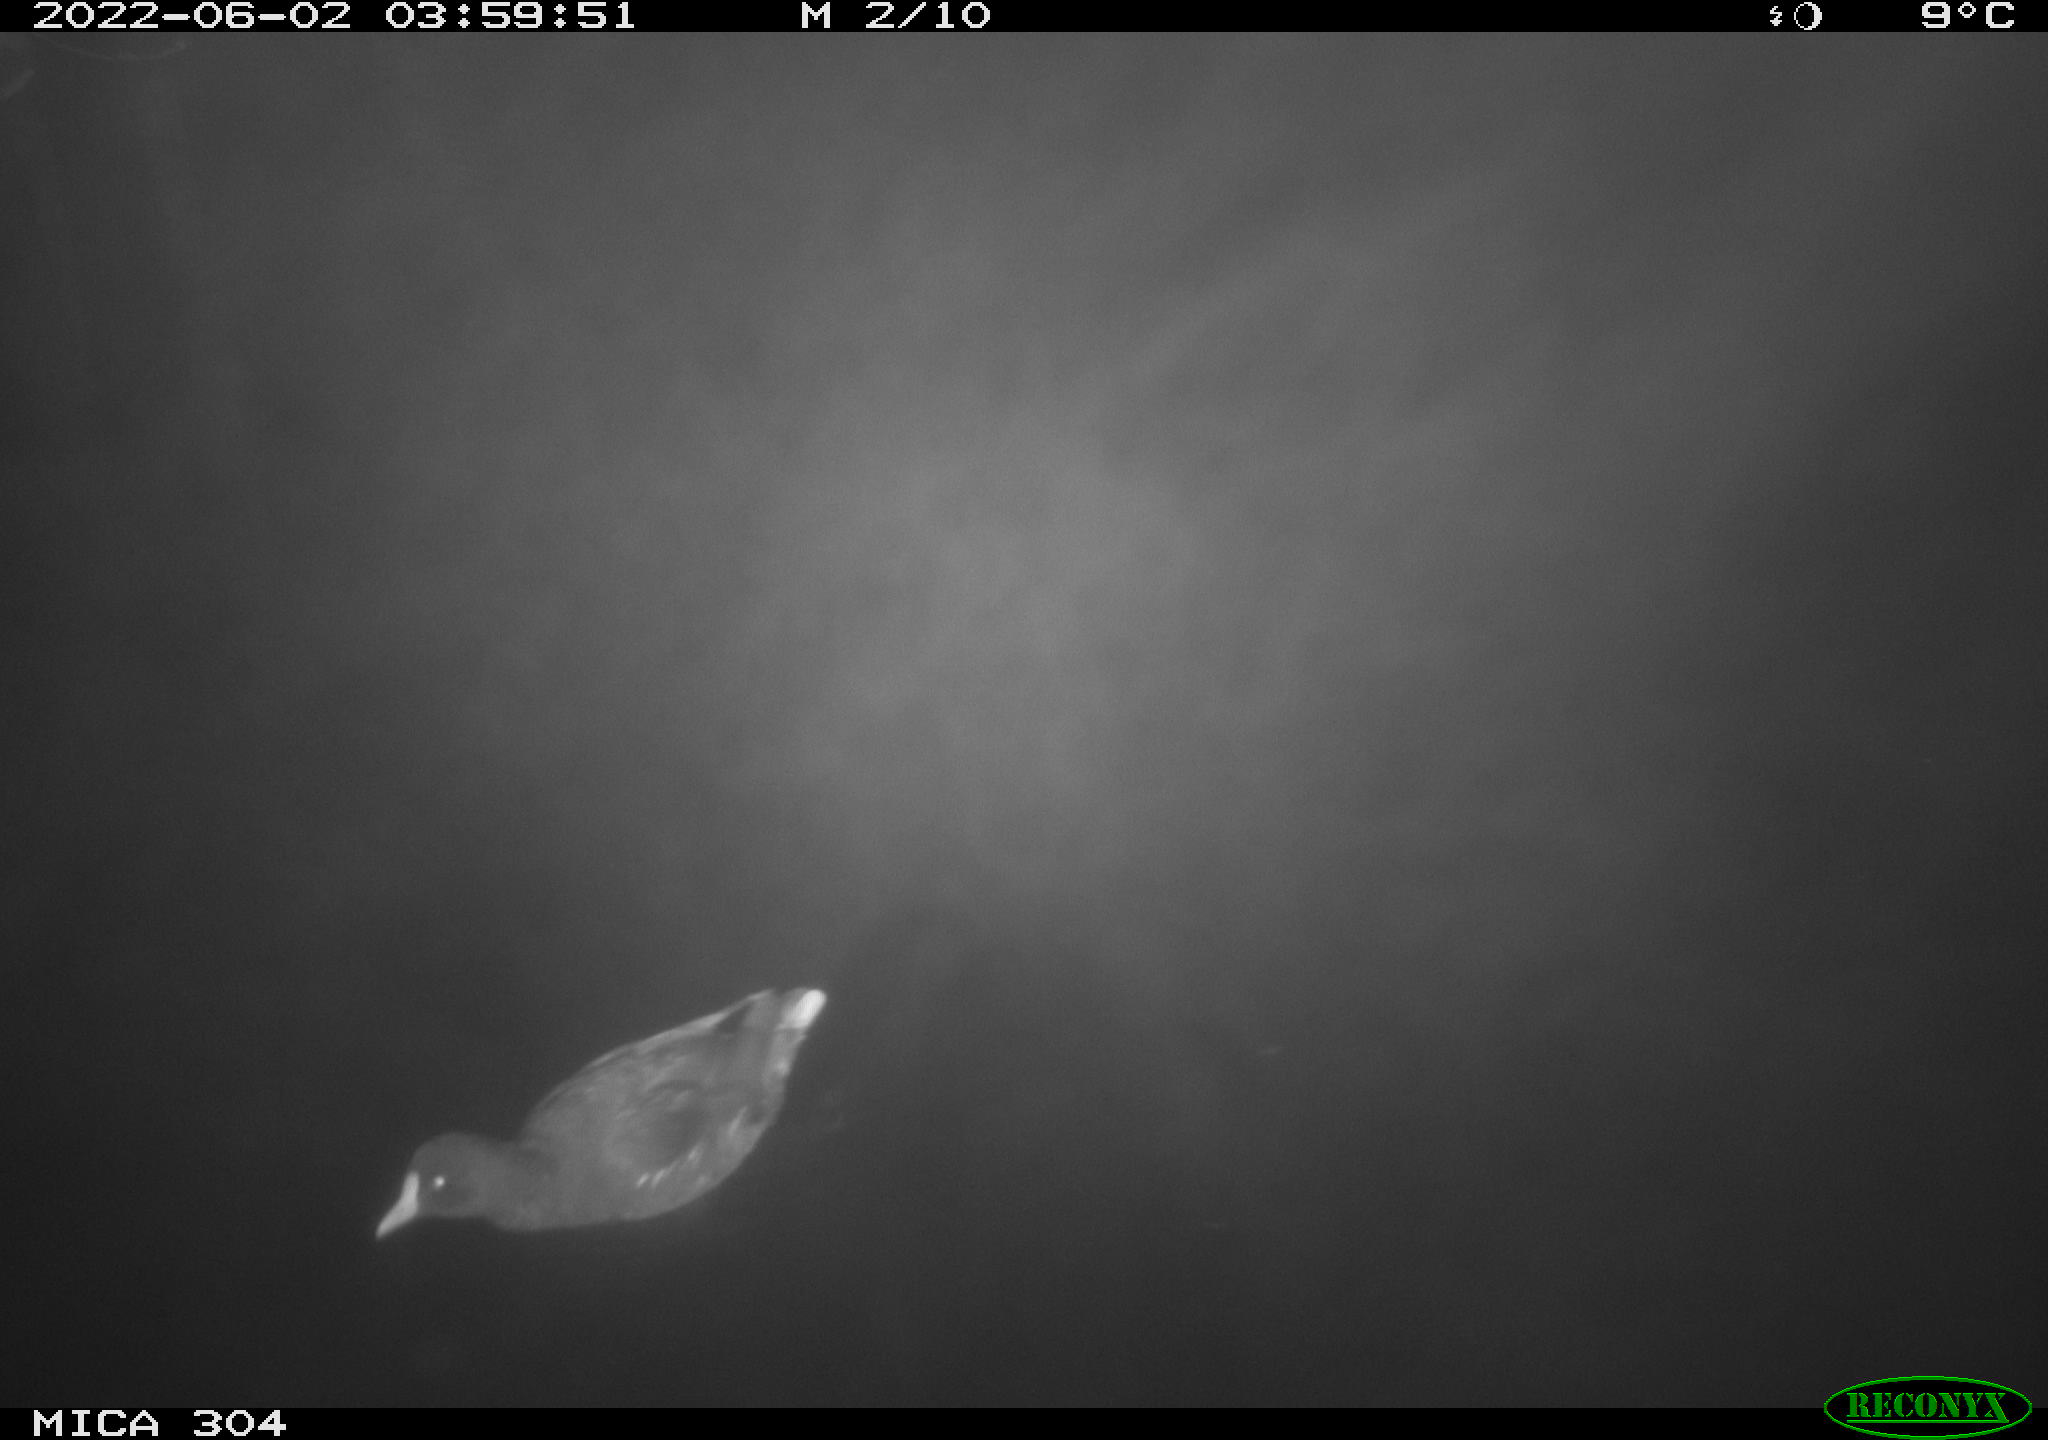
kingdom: Animalia
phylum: Chordata
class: Aves
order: Gruiformes
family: Rallidae
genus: Gallinula
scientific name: Gallinula chloropus
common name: Common moorhen
